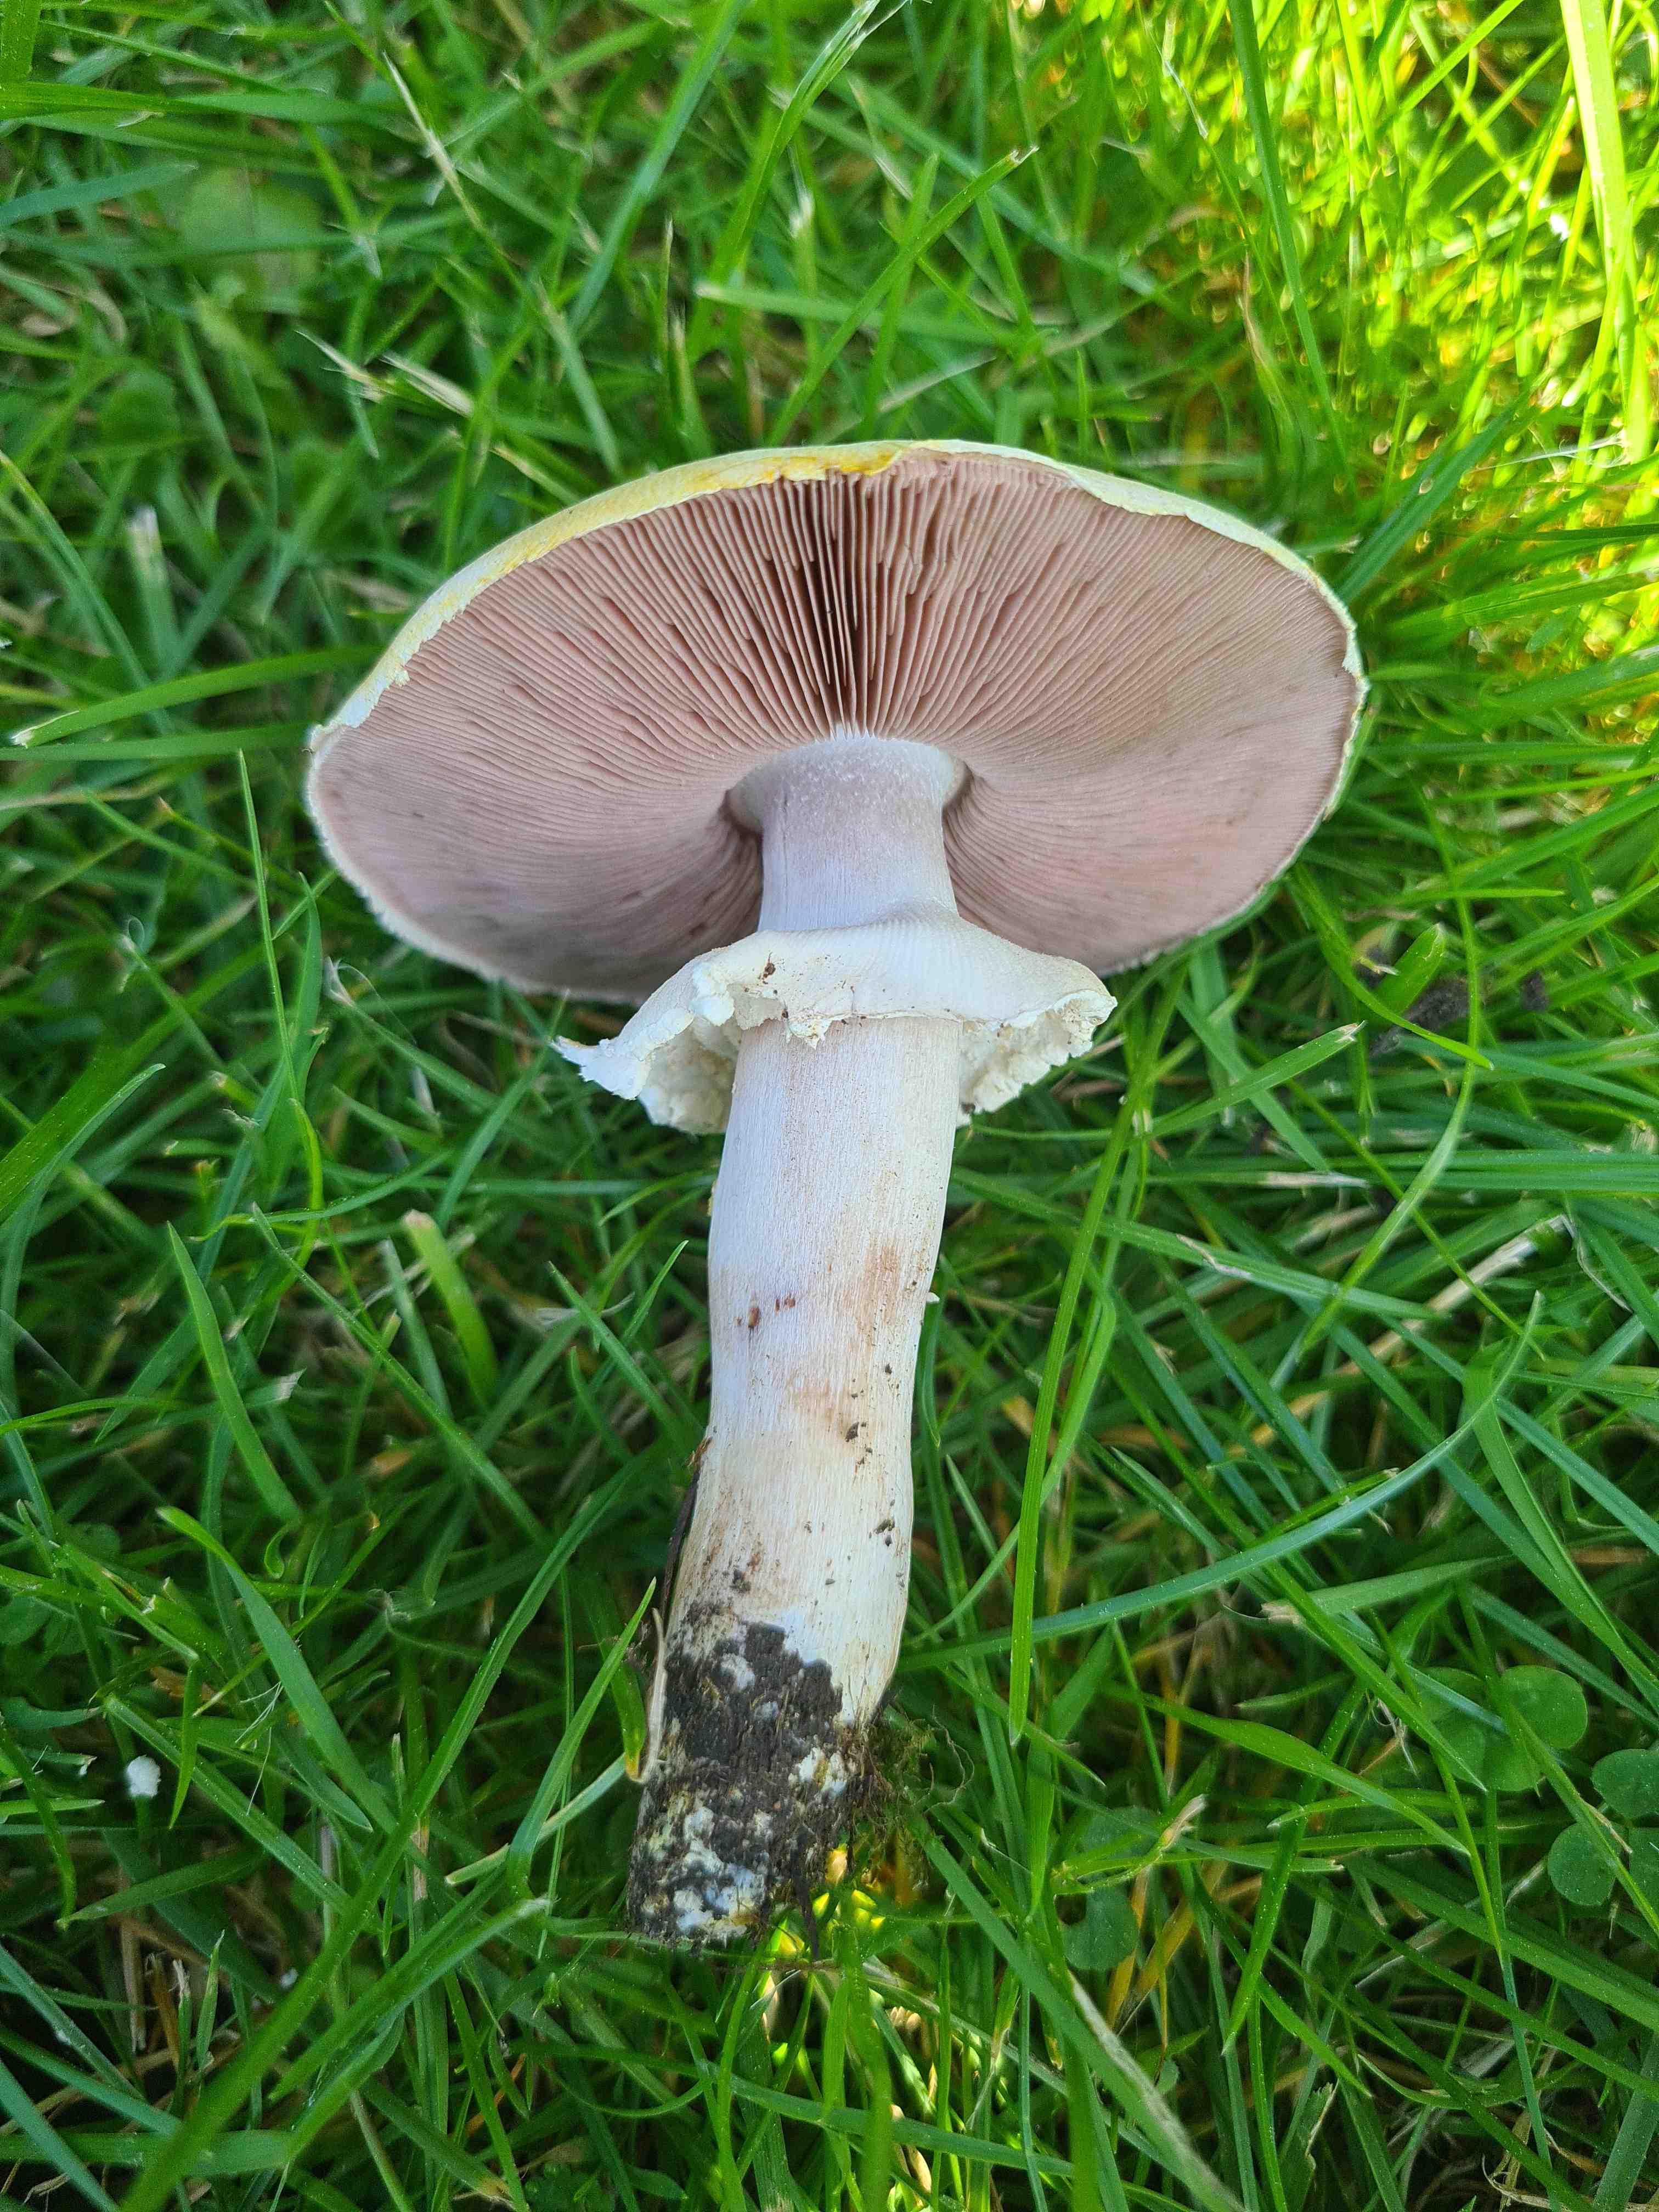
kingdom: Fungi
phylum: Basidiomycota
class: Agaricomycetes
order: Agaricales
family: Agaricaceae
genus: Agaricus
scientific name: Agaricus xanthodermus
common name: karbol-champignon
